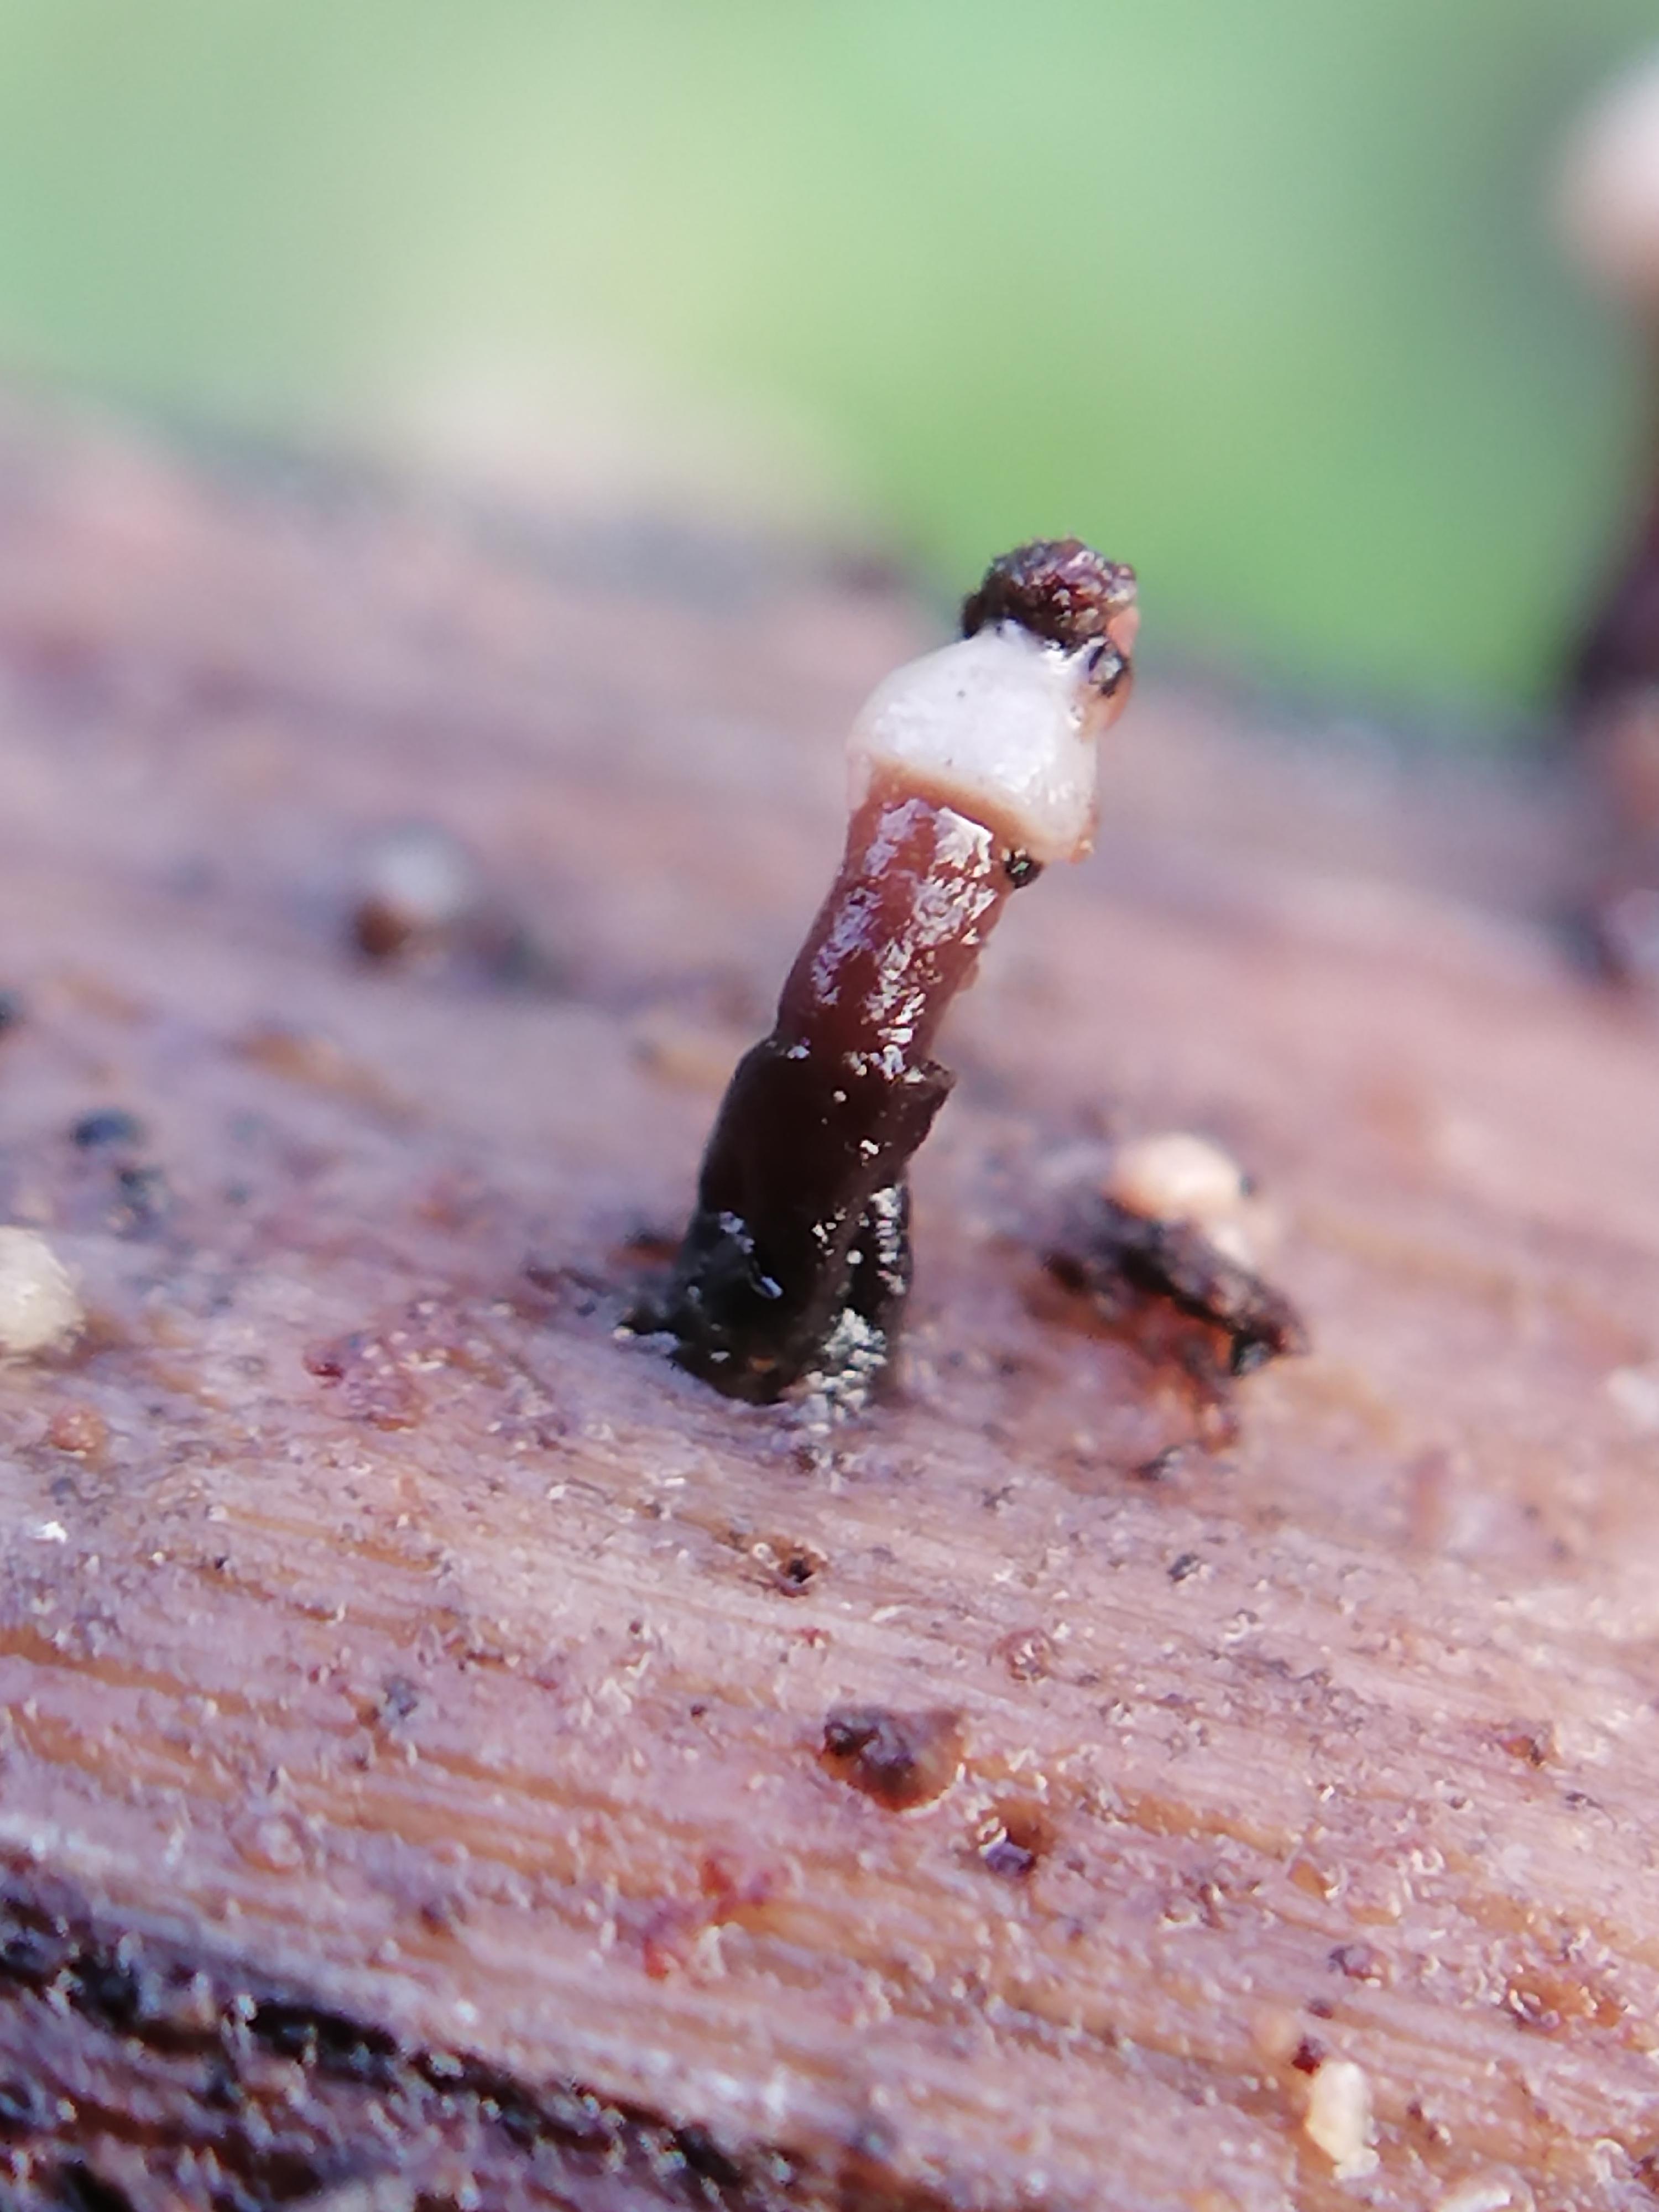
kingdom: Fungi
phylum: Ascomycota
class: Leotiomycetes
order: Helotiales
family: Gelatinodiscaceae
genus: Ascocoryne
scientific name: Ascocoryne albida
